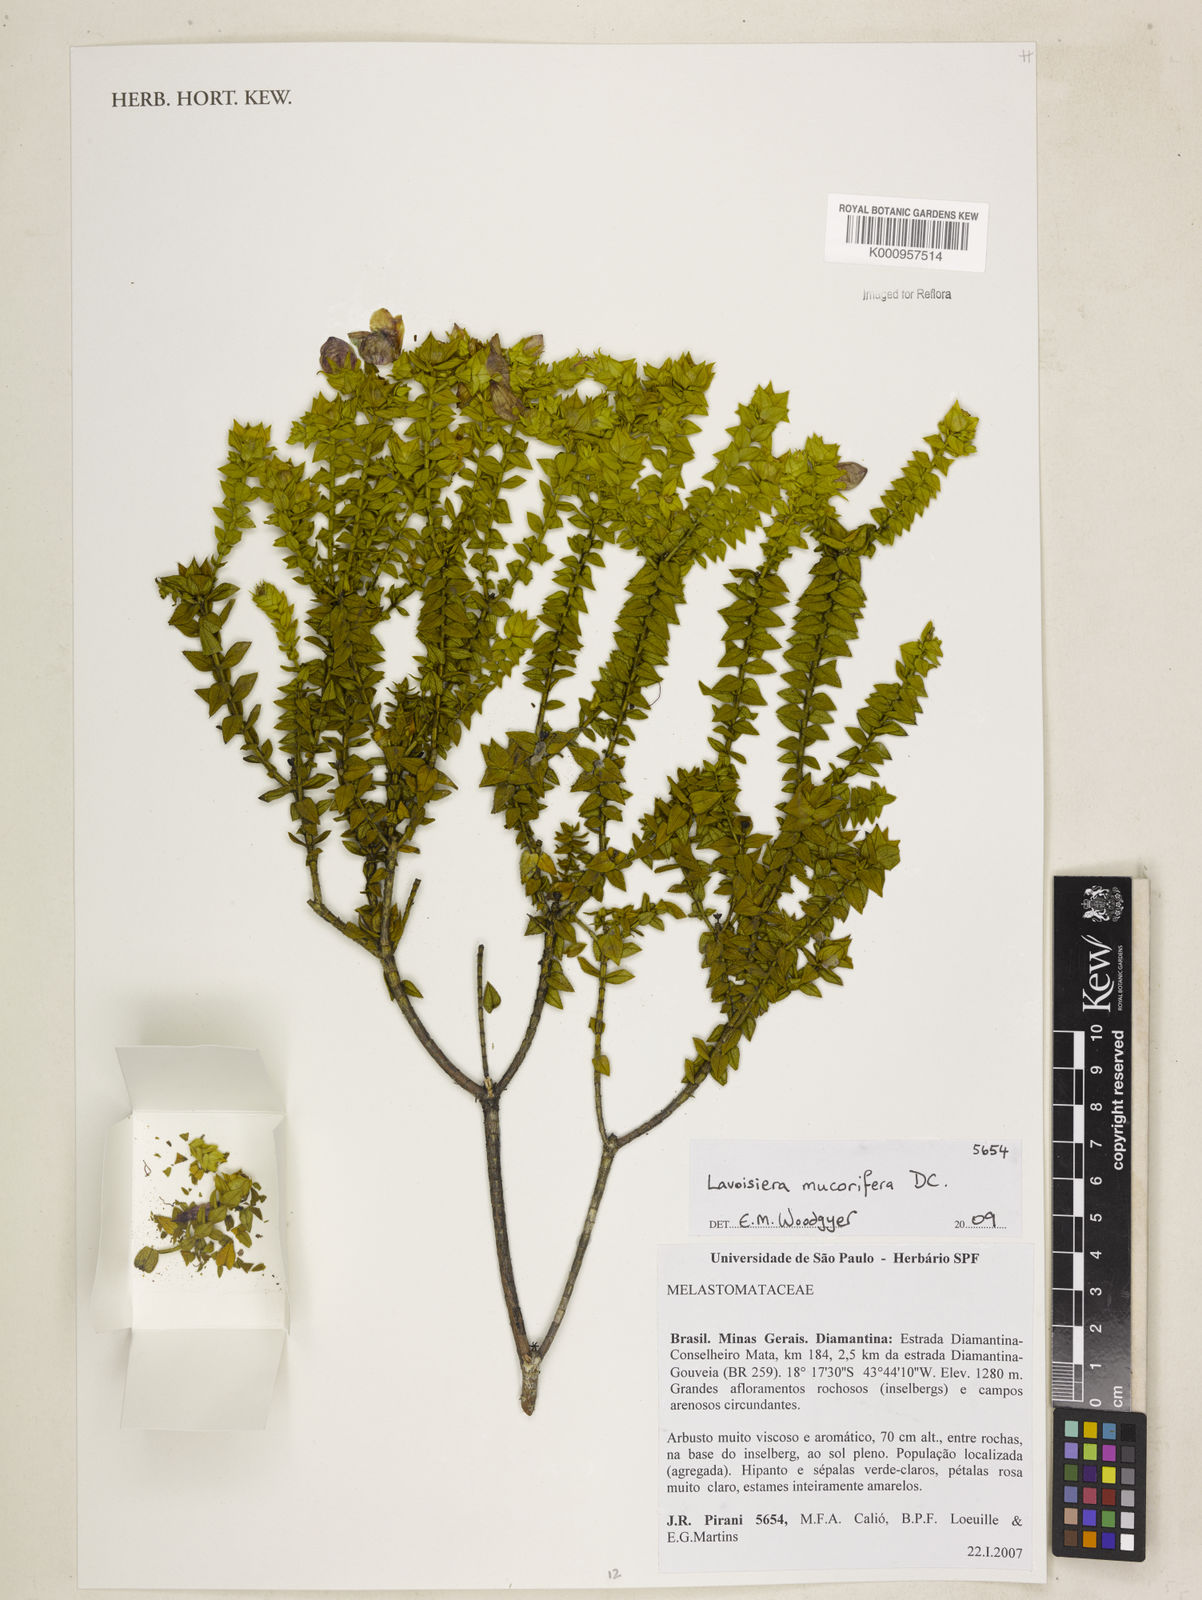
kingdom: Plantae
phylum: Tracheophyta
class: Magnoliopsida
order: Myrtales
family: Melastomataceae
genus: Microlicia
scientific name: Microlicia mucorifera
